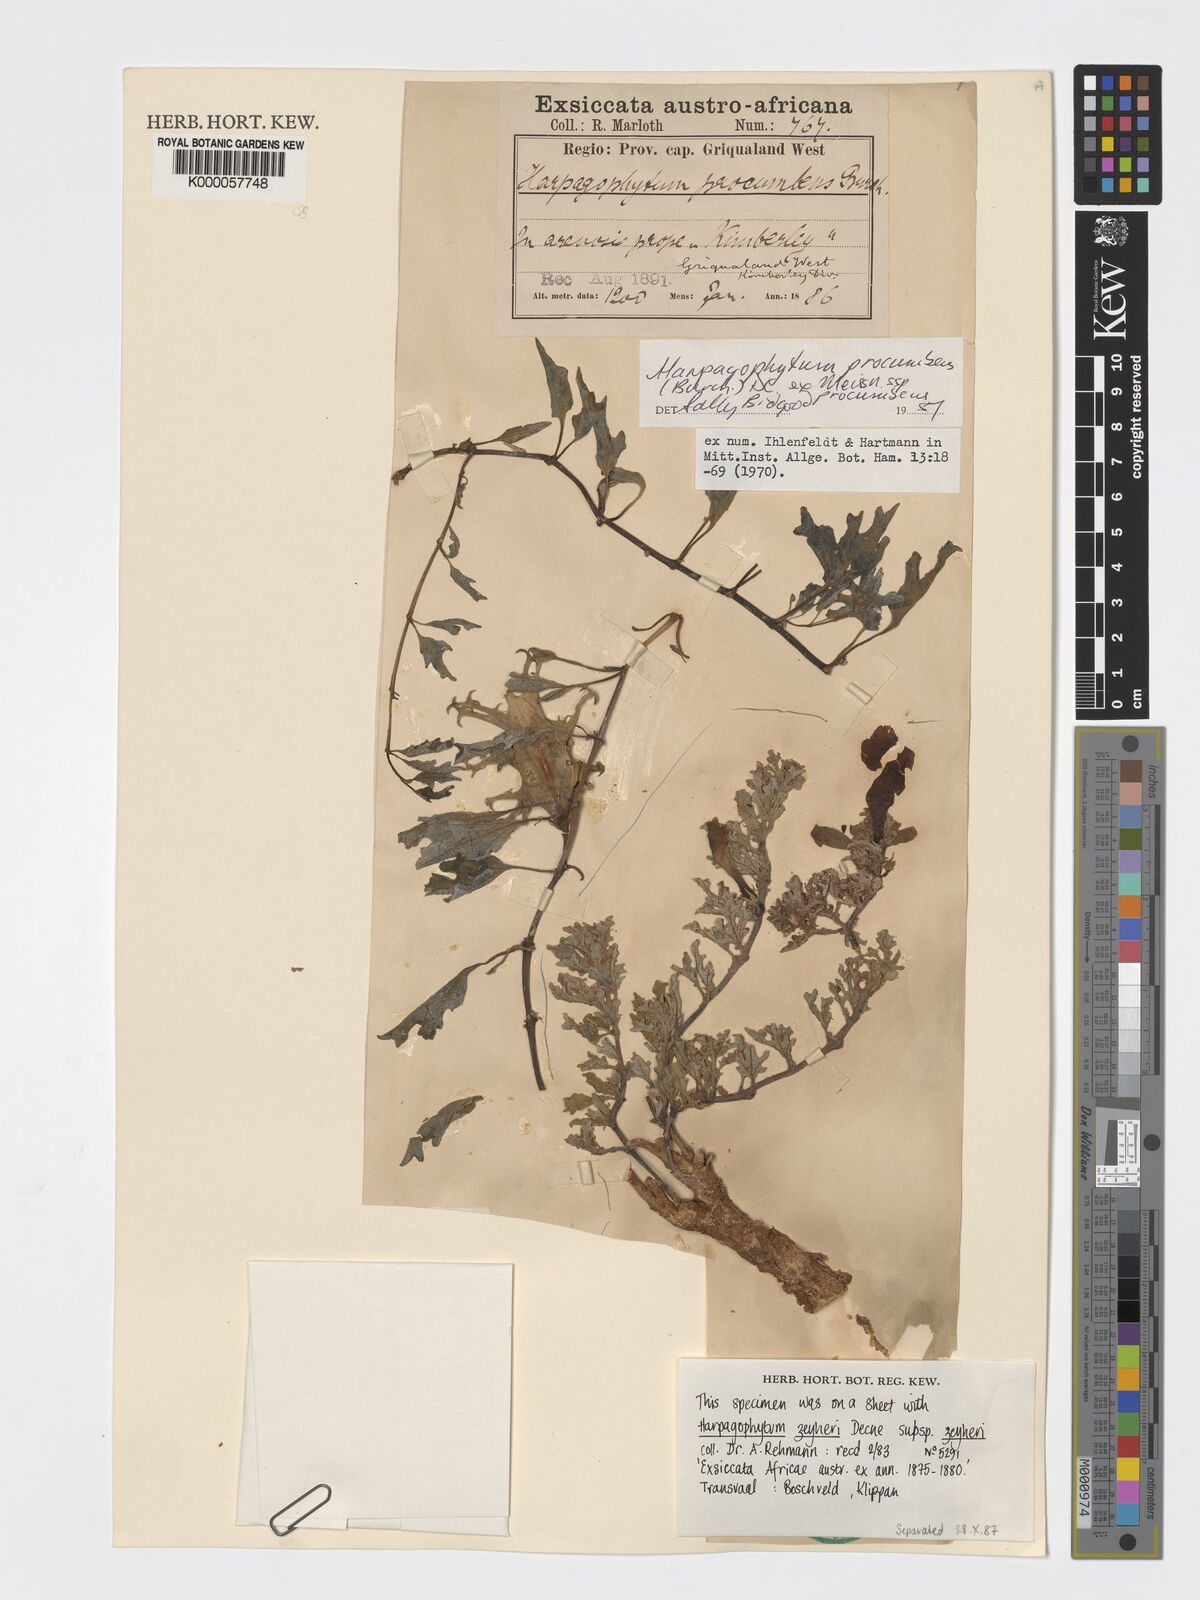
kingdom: Plantae
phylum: Tracheophyta
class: Magnoliopsida
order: Lamiales
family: Pedaliaceae
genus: Harpagophytum
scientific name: Harpagophytum procumbens
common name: Grappleplant
